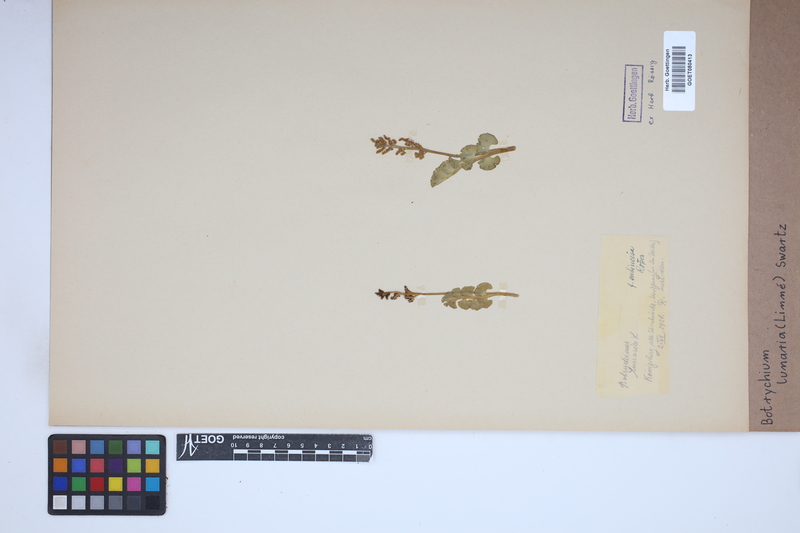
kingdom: Plantae
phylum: Tracheophyta
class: Polypodiopsida
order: Ophioglossales
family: Ophioglossaceae
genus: Botrychium
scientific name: Botrychium lunaria
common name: Moonwort
